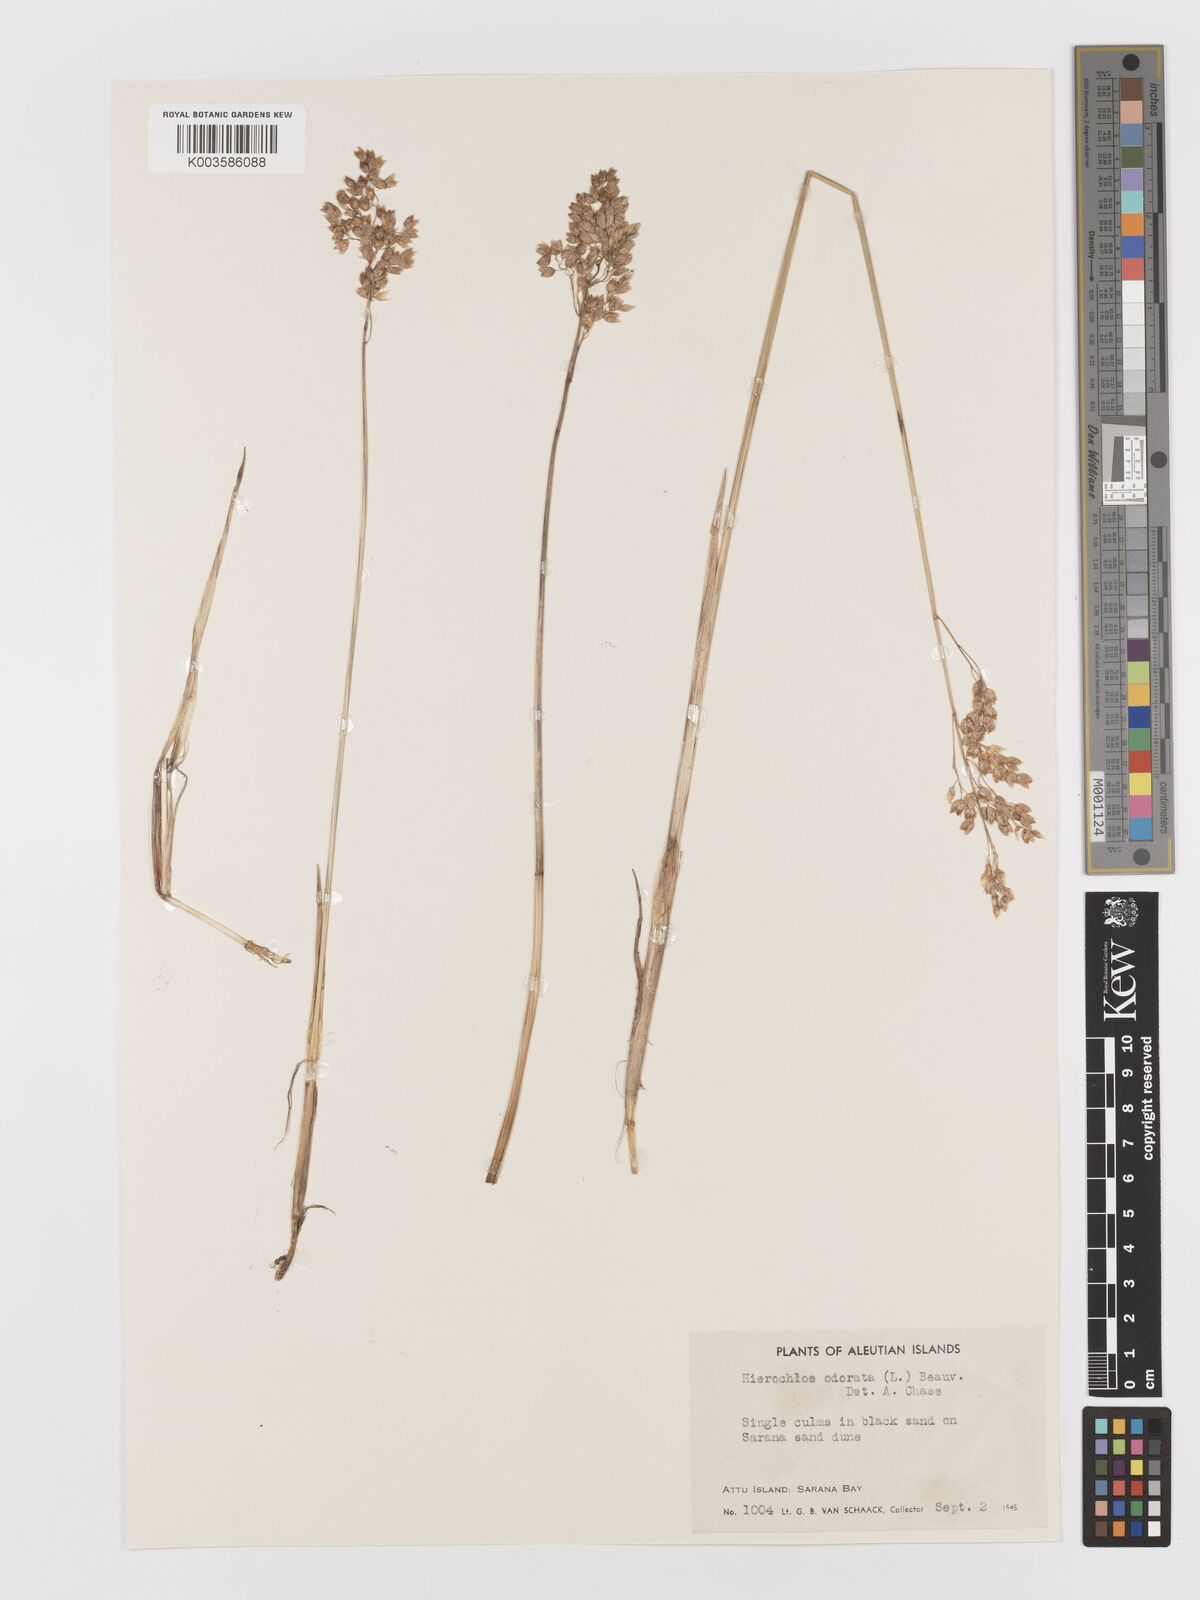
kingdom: Plantae
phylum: Tracheophyta
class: Liliopsida
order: Poales
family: Poaceae
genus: Anthoxanthum
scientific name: Anthoxanthum nitens
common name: Holy grass
